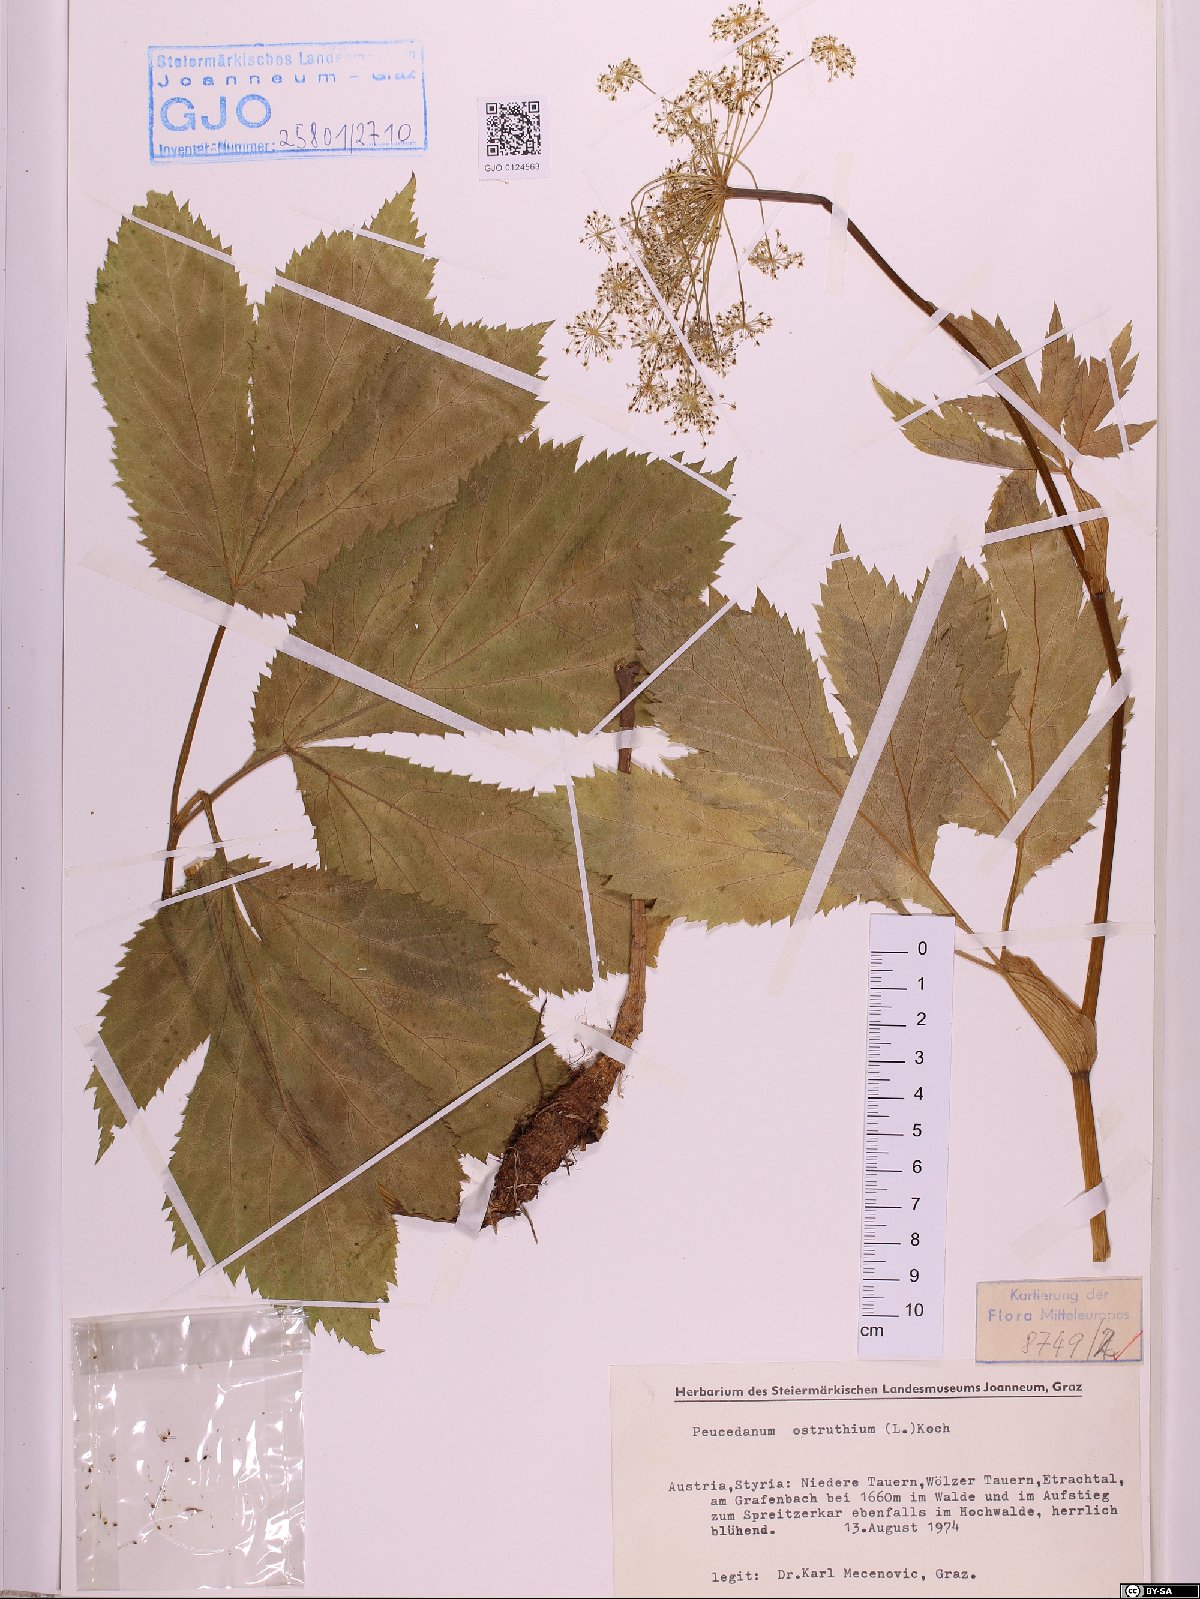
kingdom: Plantae
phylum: Tracheophyta
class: Magnoliopsida
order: Apiales
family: Apiaceae
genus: Imperatoria
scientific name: Imperatoria ostruthium
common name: Masterwort
